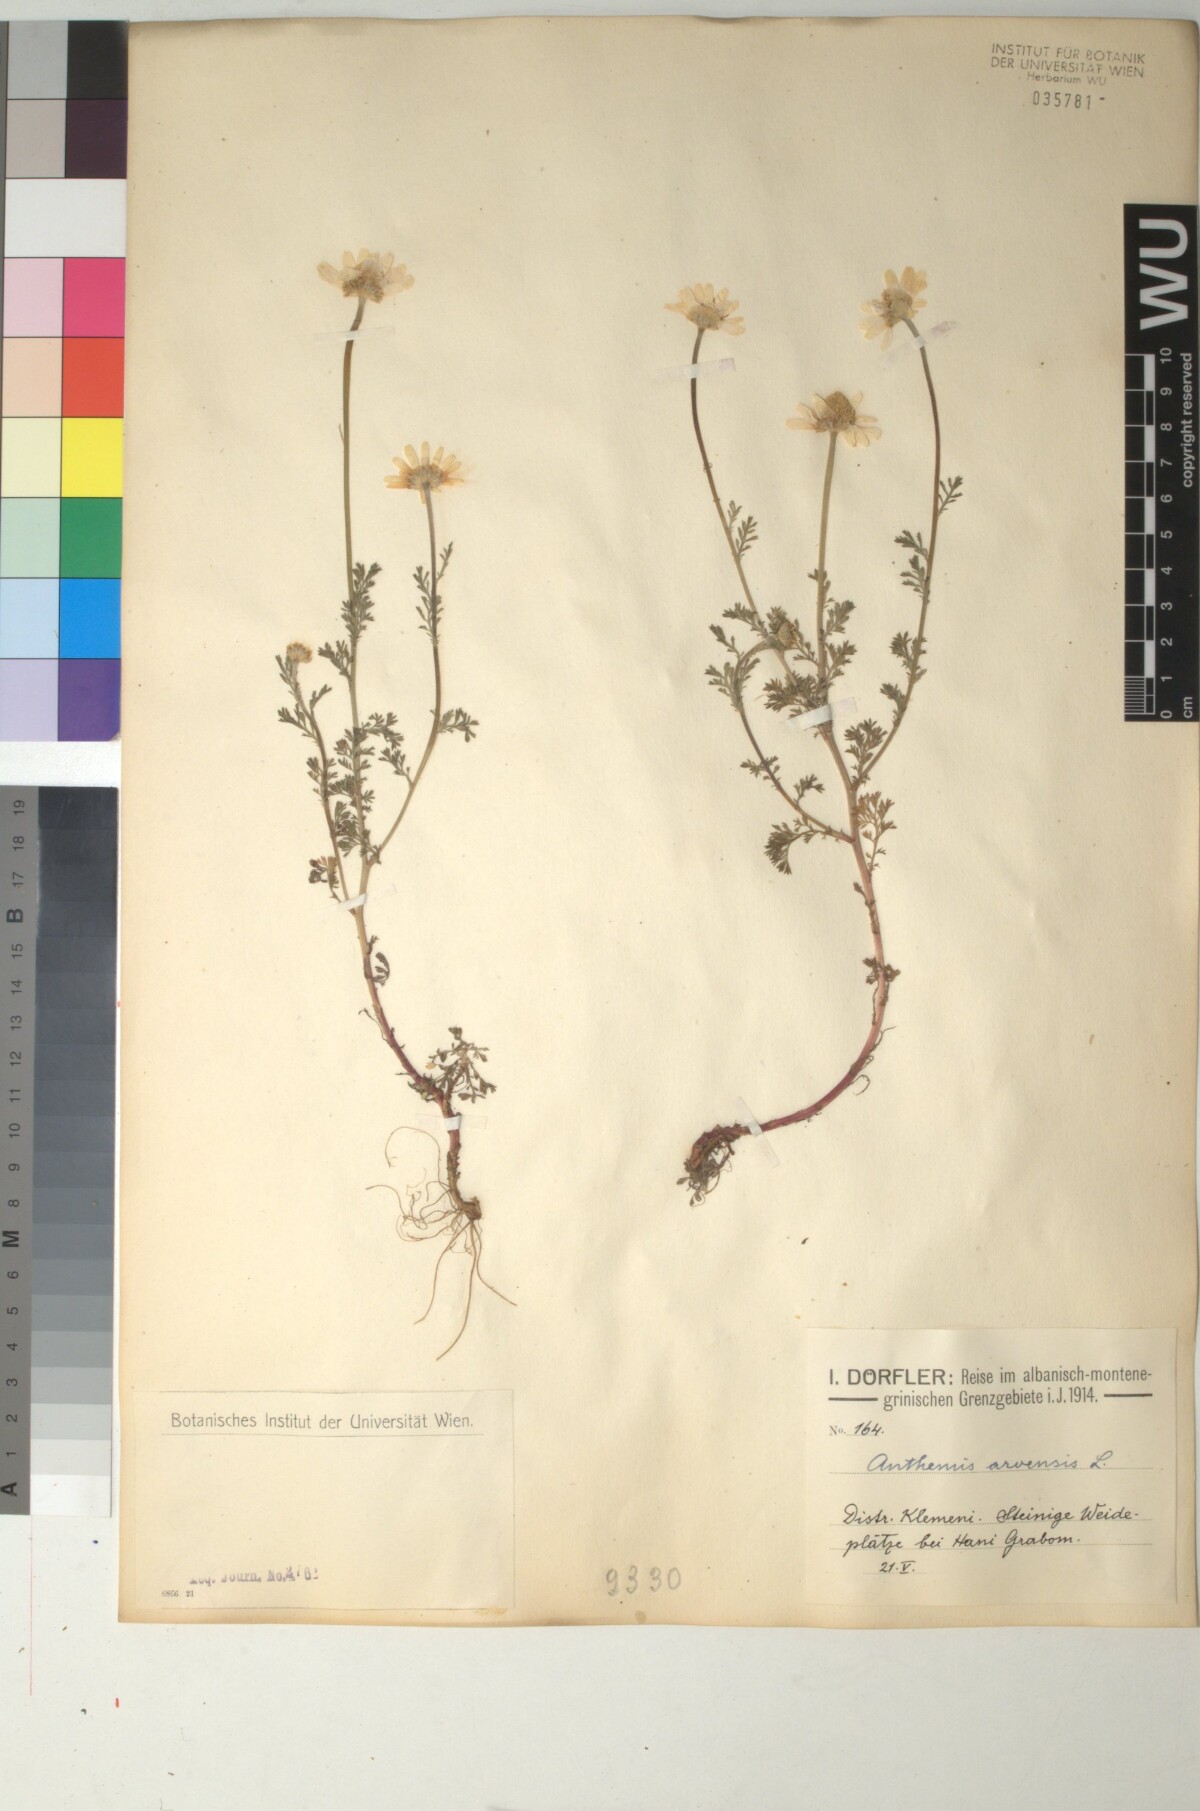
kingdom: Plantae
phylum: Tracheophyta
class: Magnoliopsida
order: Asterales
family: Asteraceae
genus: Anthemis
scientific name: Anthemis arvensis
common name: Corn chamomile
